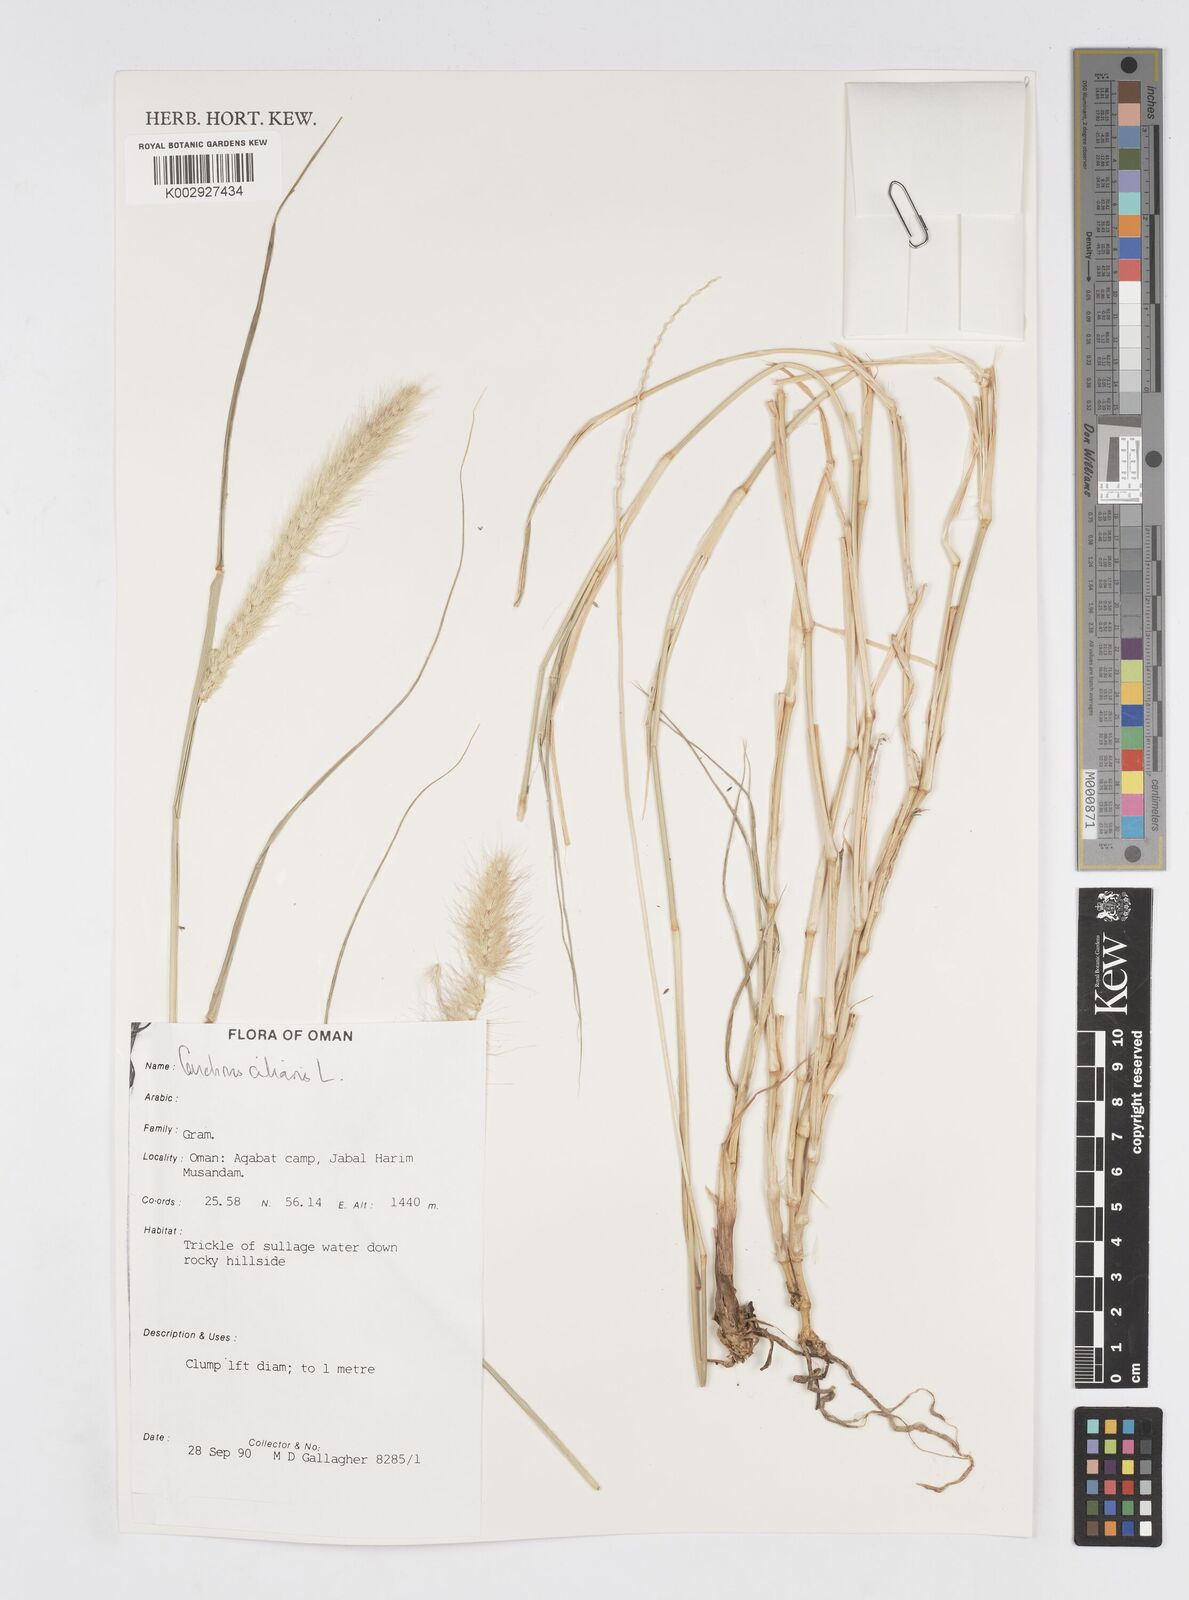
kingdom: Plantae
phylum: Tracheophyta
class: Liliopsida
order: Poales
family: Poaceae
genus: Cenchrus
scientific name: Cenchrus ciliaris
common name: Buffelgrass
